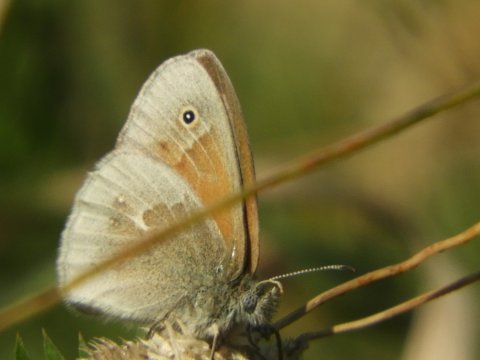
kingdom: Animalia
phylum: Arthropoda
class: Insecta
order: Lepidoptera
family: Nymphalidae
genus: Coenonympha
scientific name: Coenonympha tullia
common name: Large Heath
